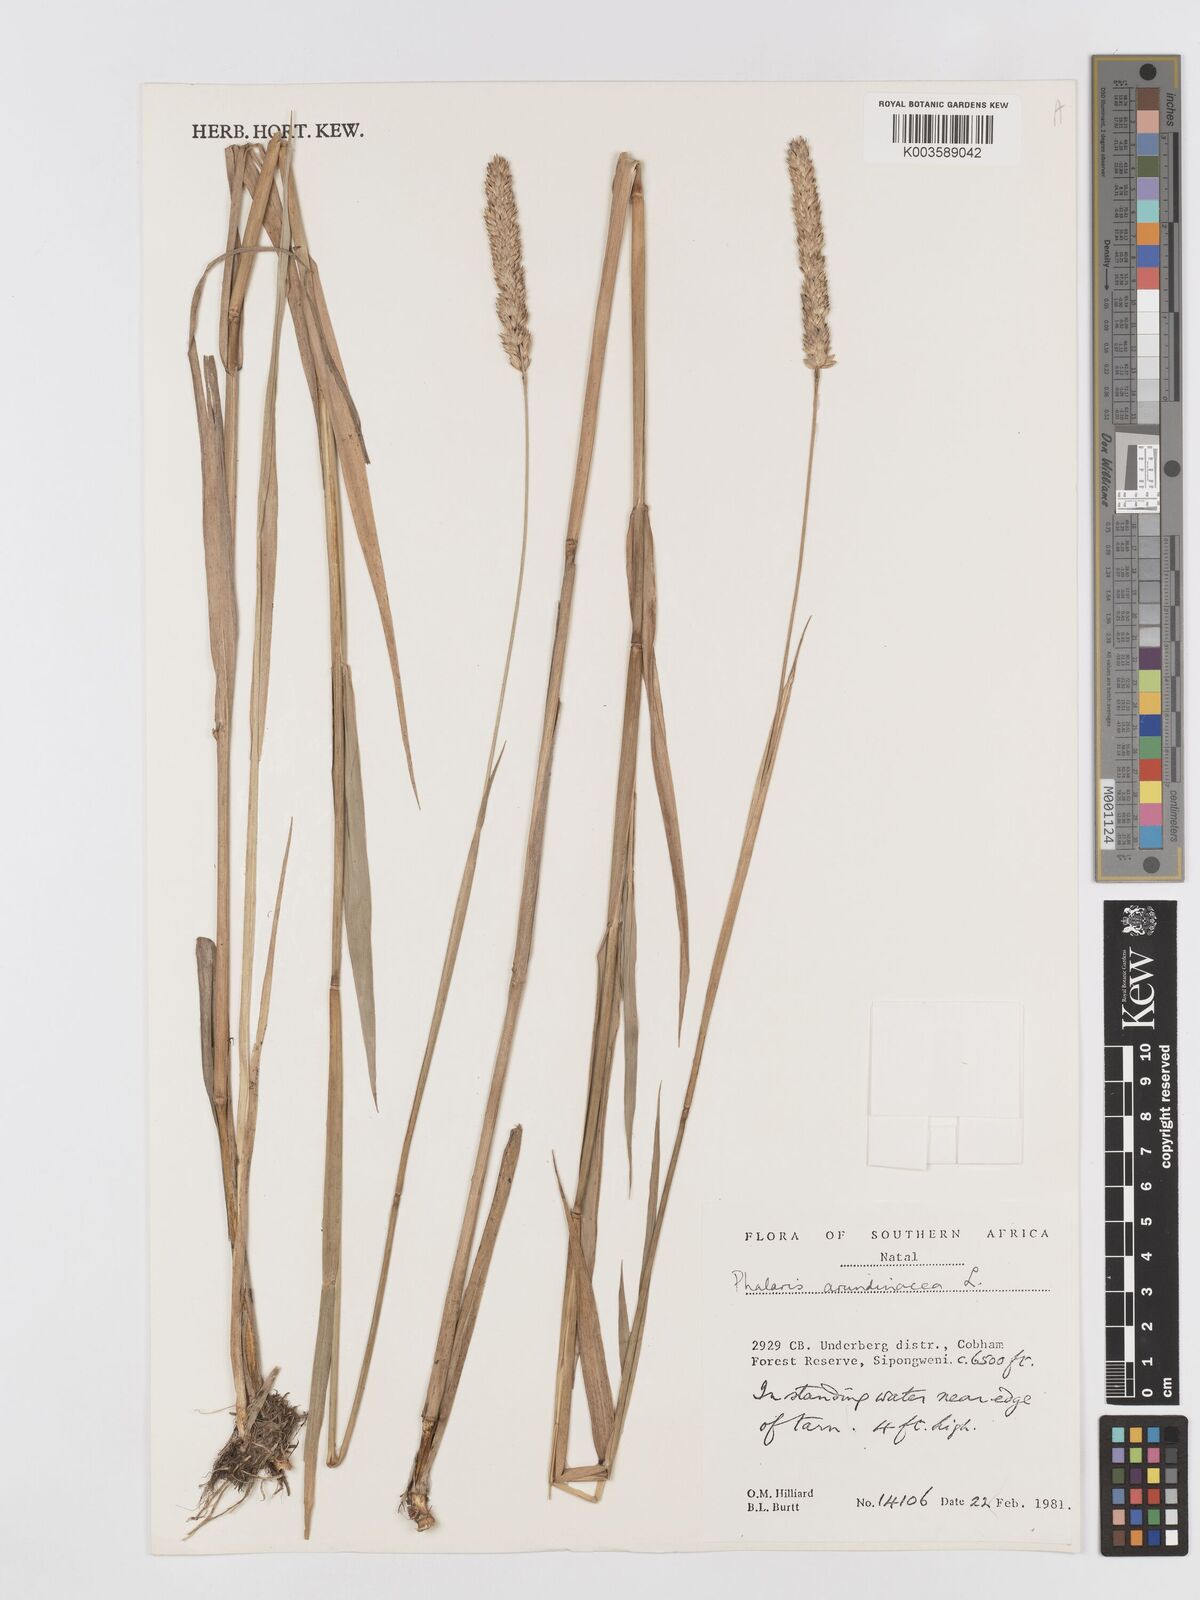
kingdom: Plantae
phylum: Tracheophyta
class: Liliopsida
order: Poales
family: Poaceae
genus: Phalaris
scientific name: Phalaris arundinacea
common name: Reed canary-grass
